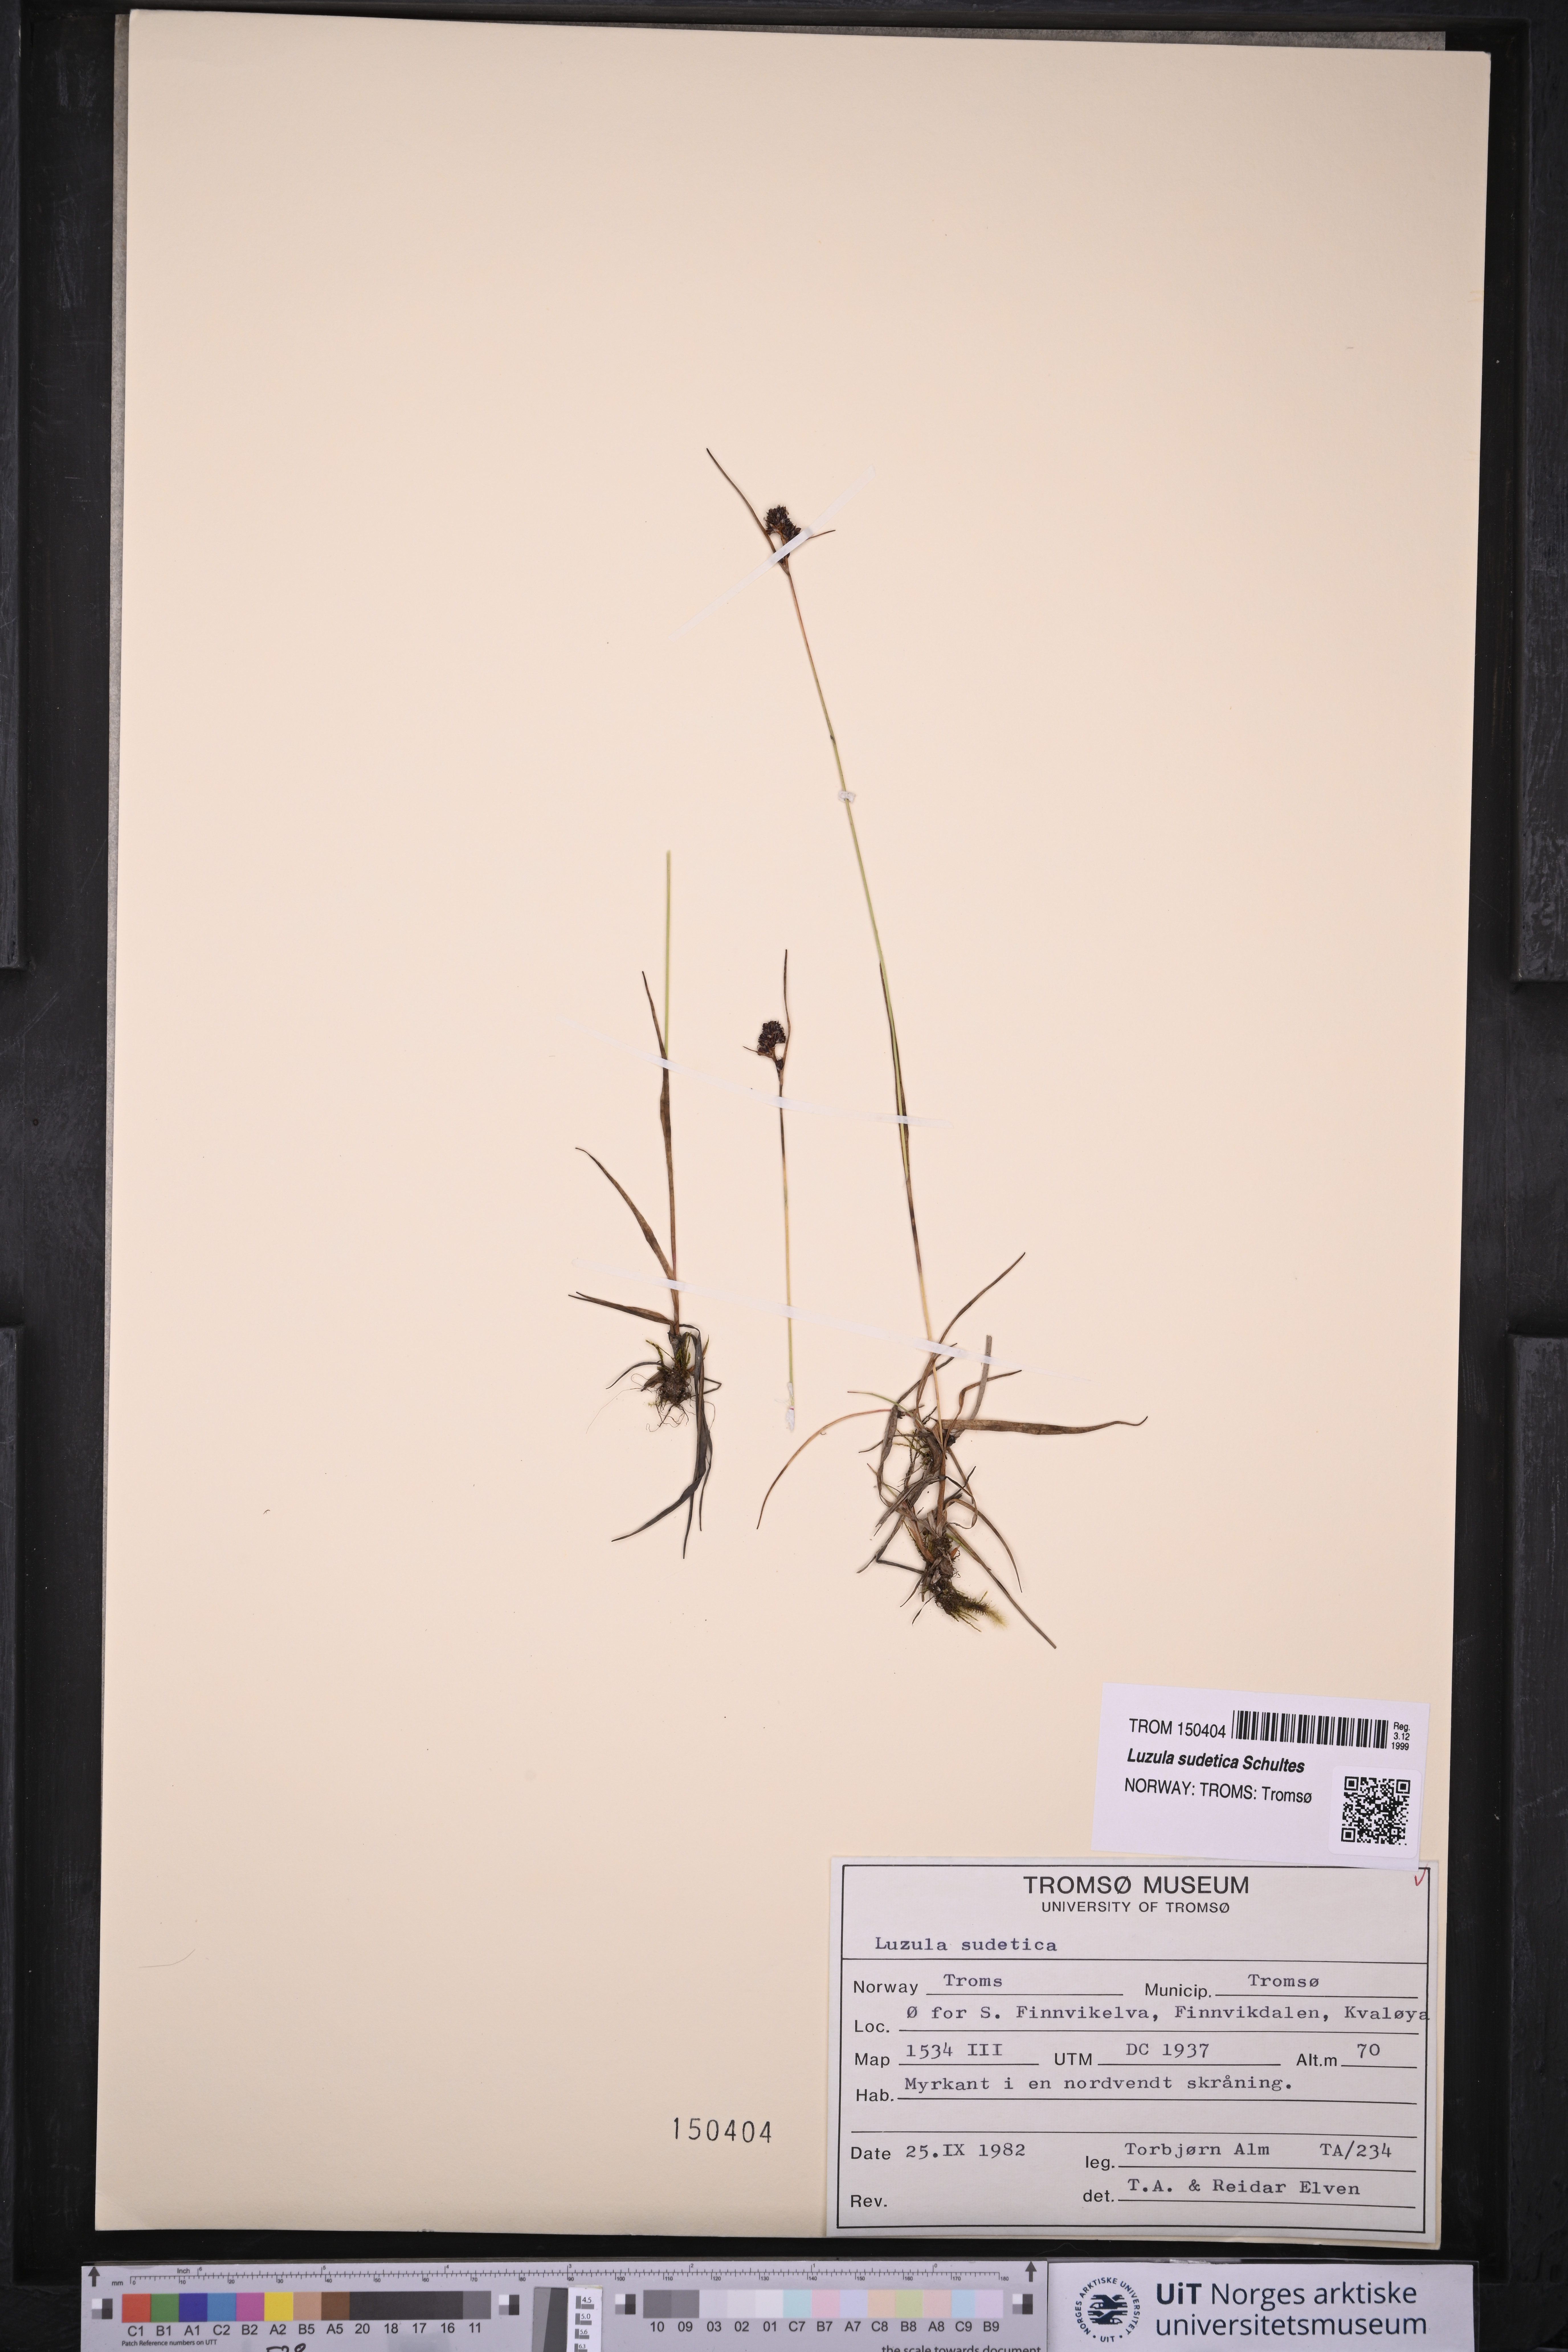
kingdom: Plantae
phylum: Tracheophyta
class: Liliopsida
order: Poales
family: Juncaceae
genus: Luzula
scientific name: Luzula sudetica
